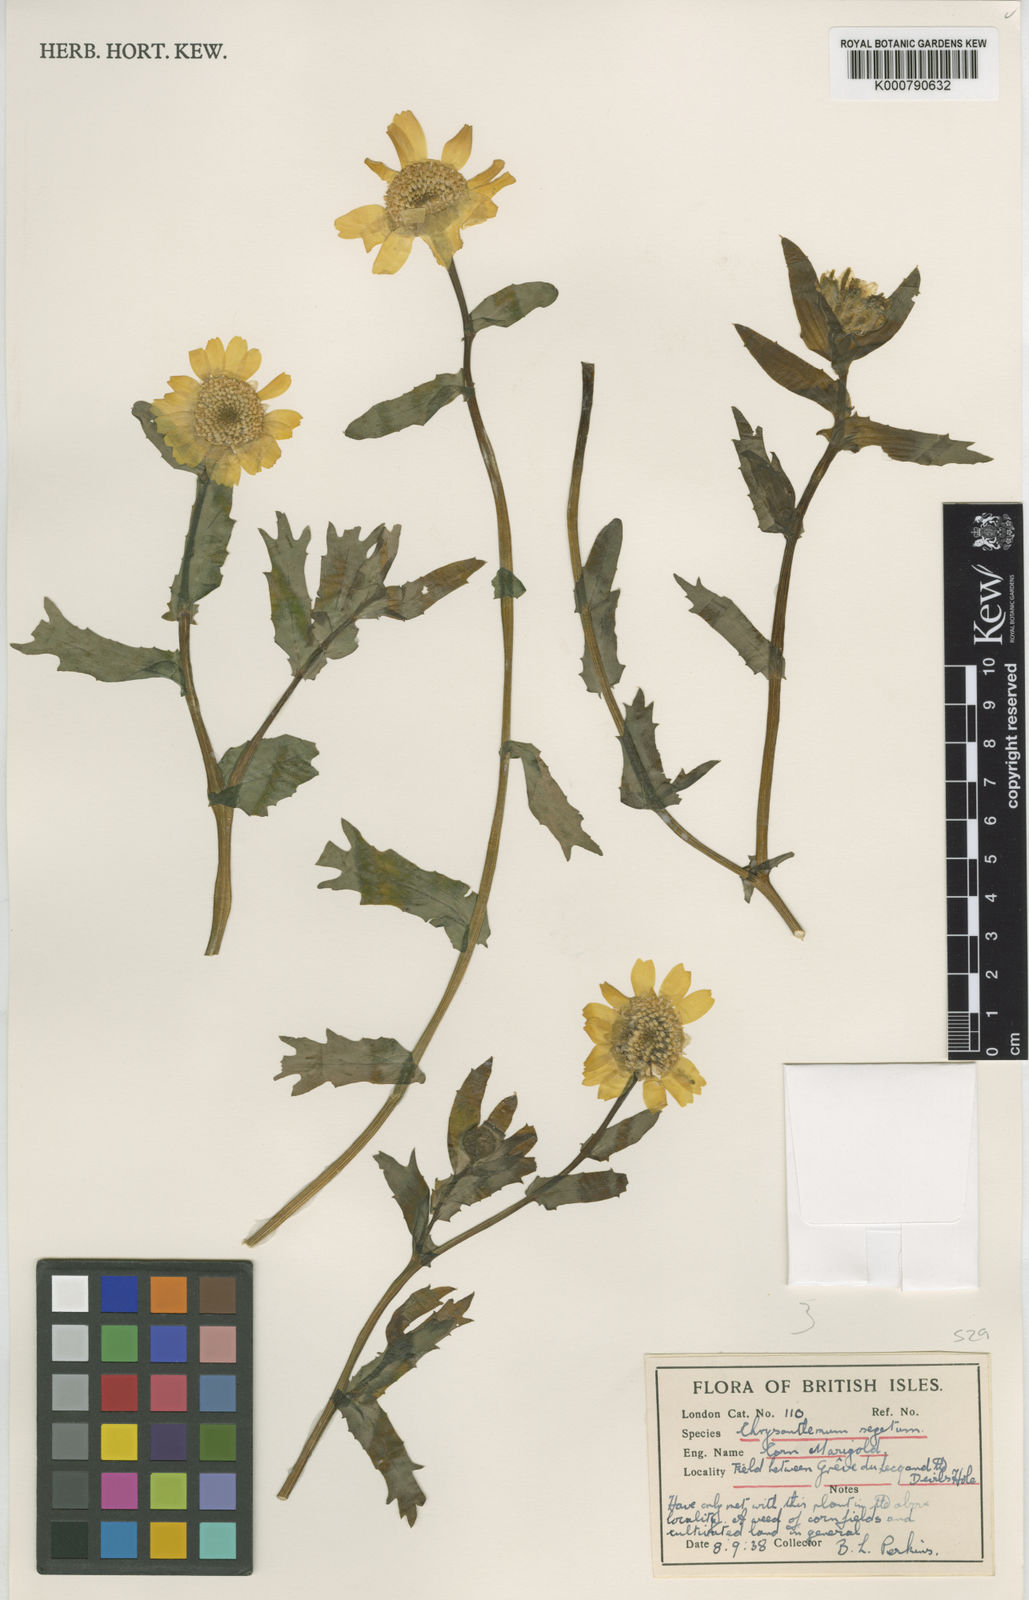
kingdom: Plantae
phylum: Tracheophyta
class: Magnoliopsida
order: Asterales
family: Asteraceae
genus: Glebionis
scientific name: Glebionis
